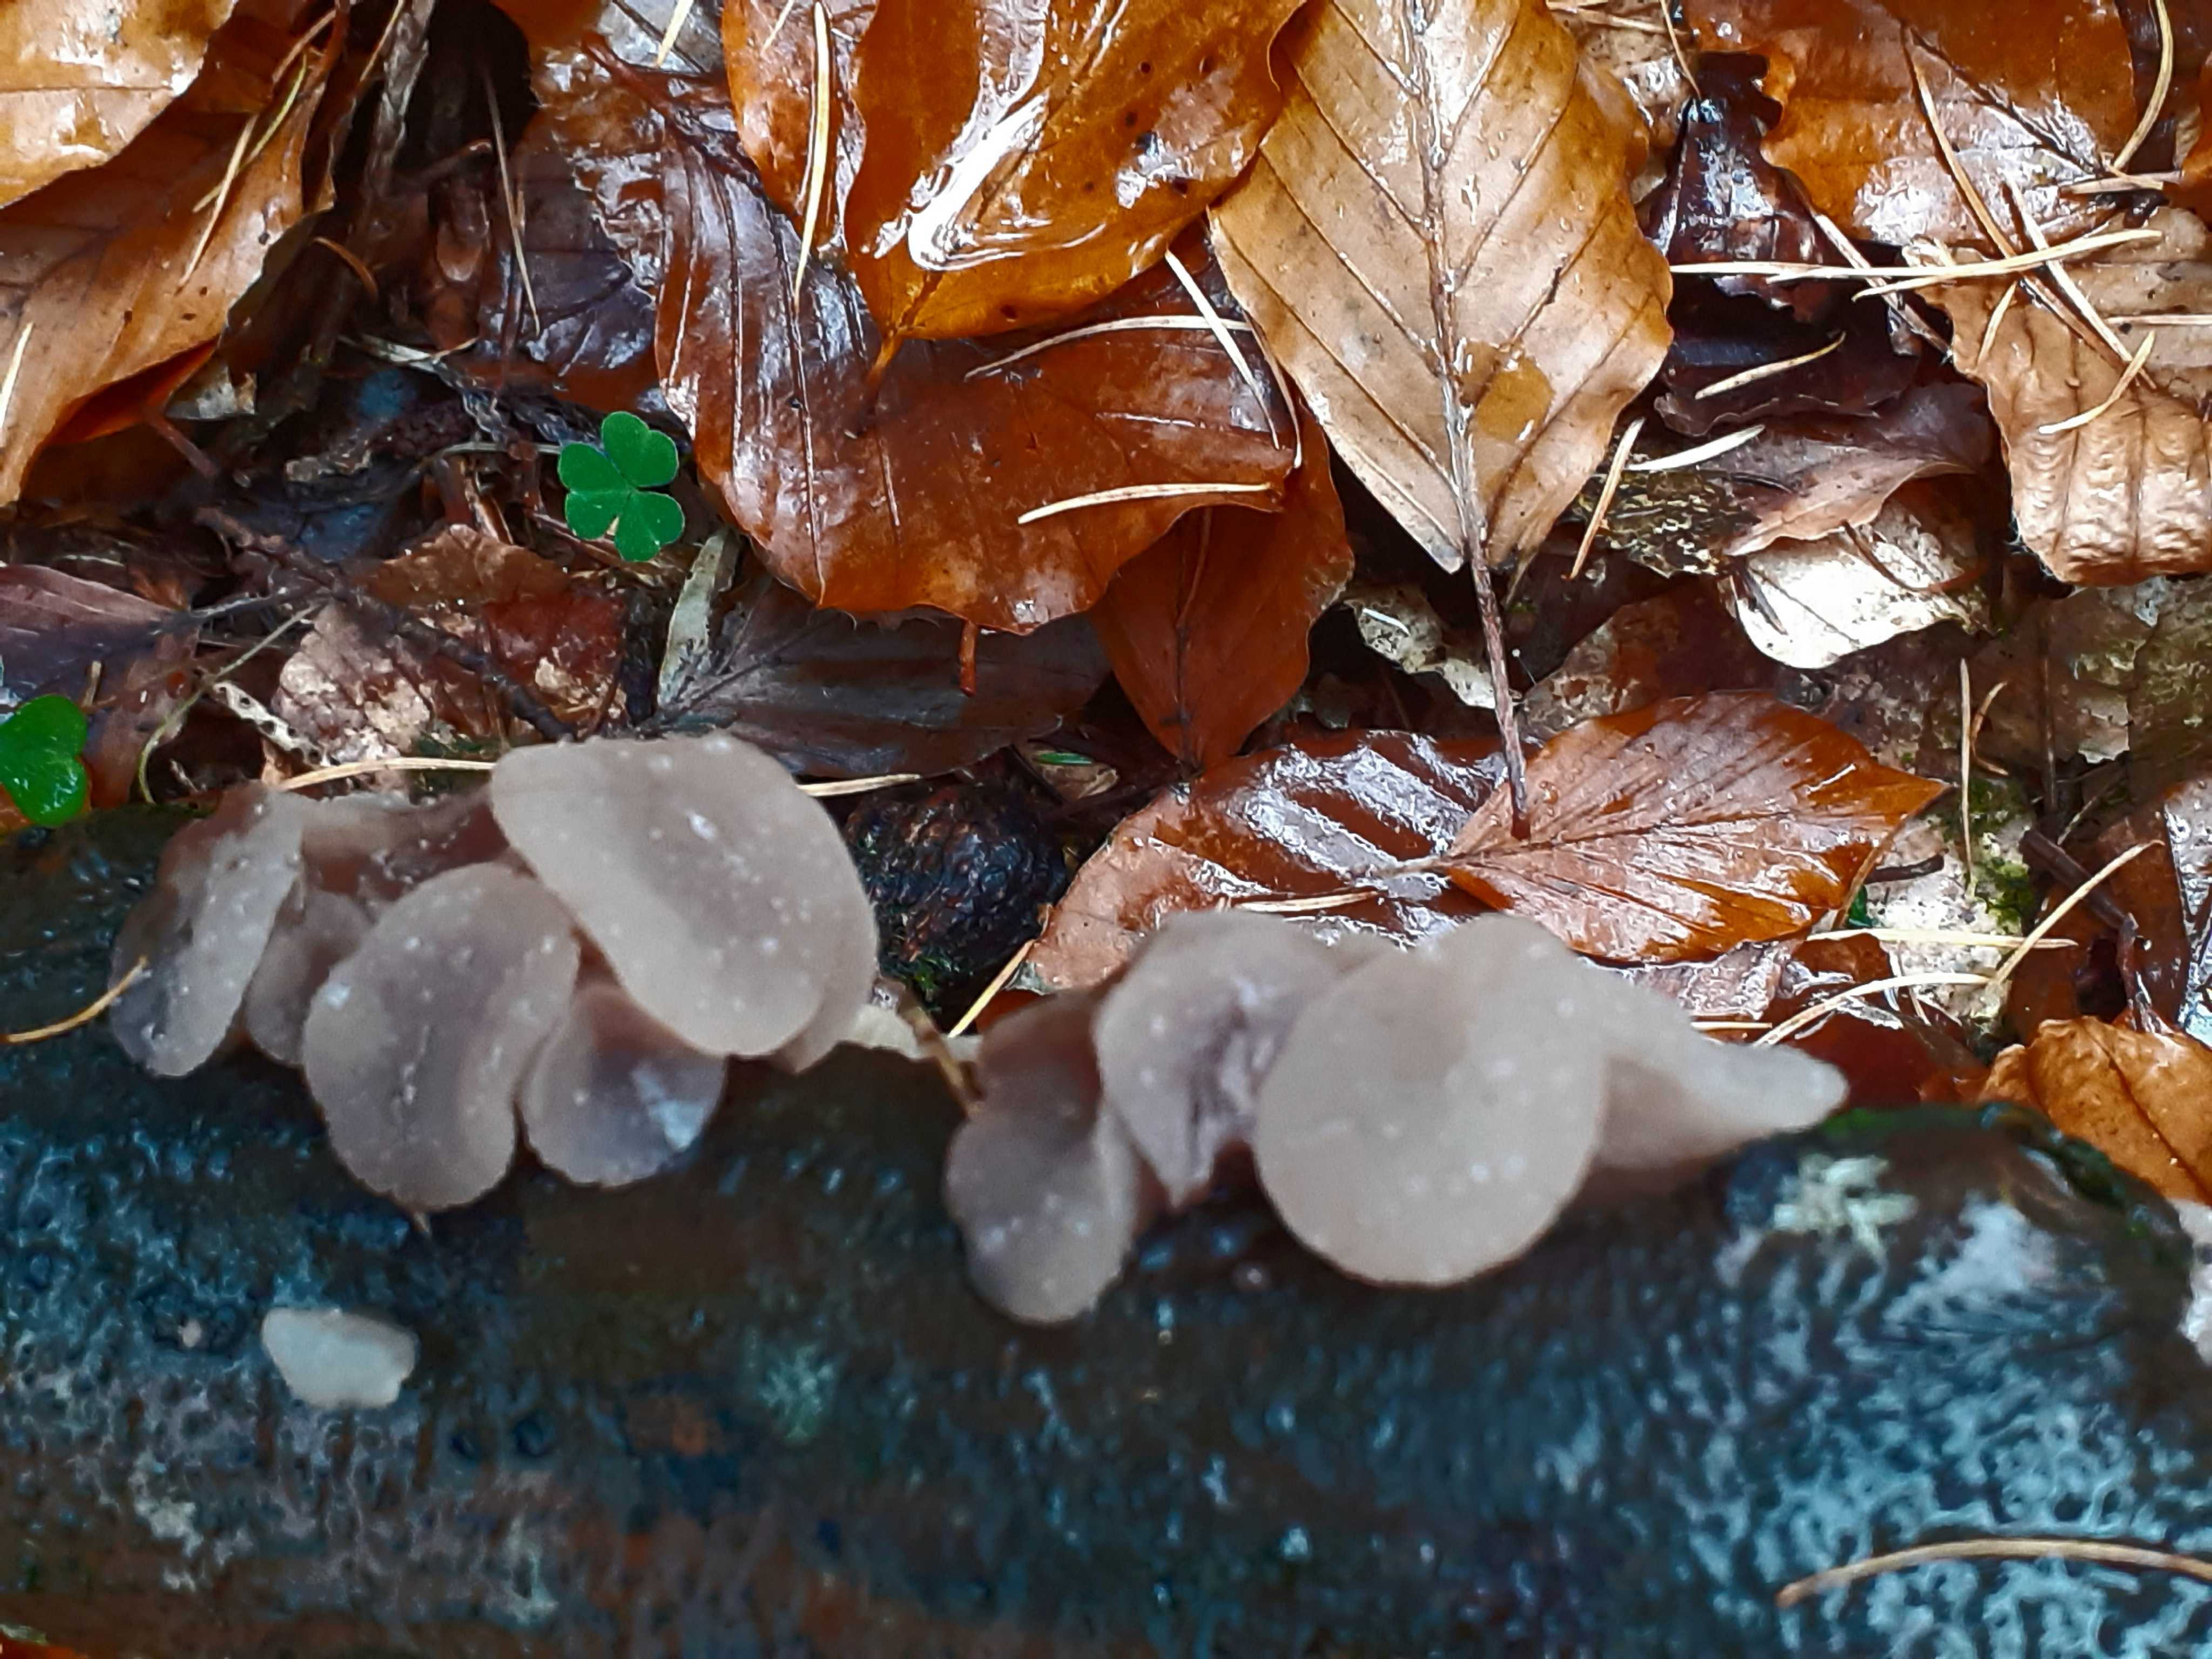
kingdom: Fungi
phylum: Ascomycota
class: Leotiomycetes
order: Helotiales
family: Gelatinodiscaceae
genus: Neobulgaria
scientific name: Neobulgaria pura
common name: bleg bævreskive
